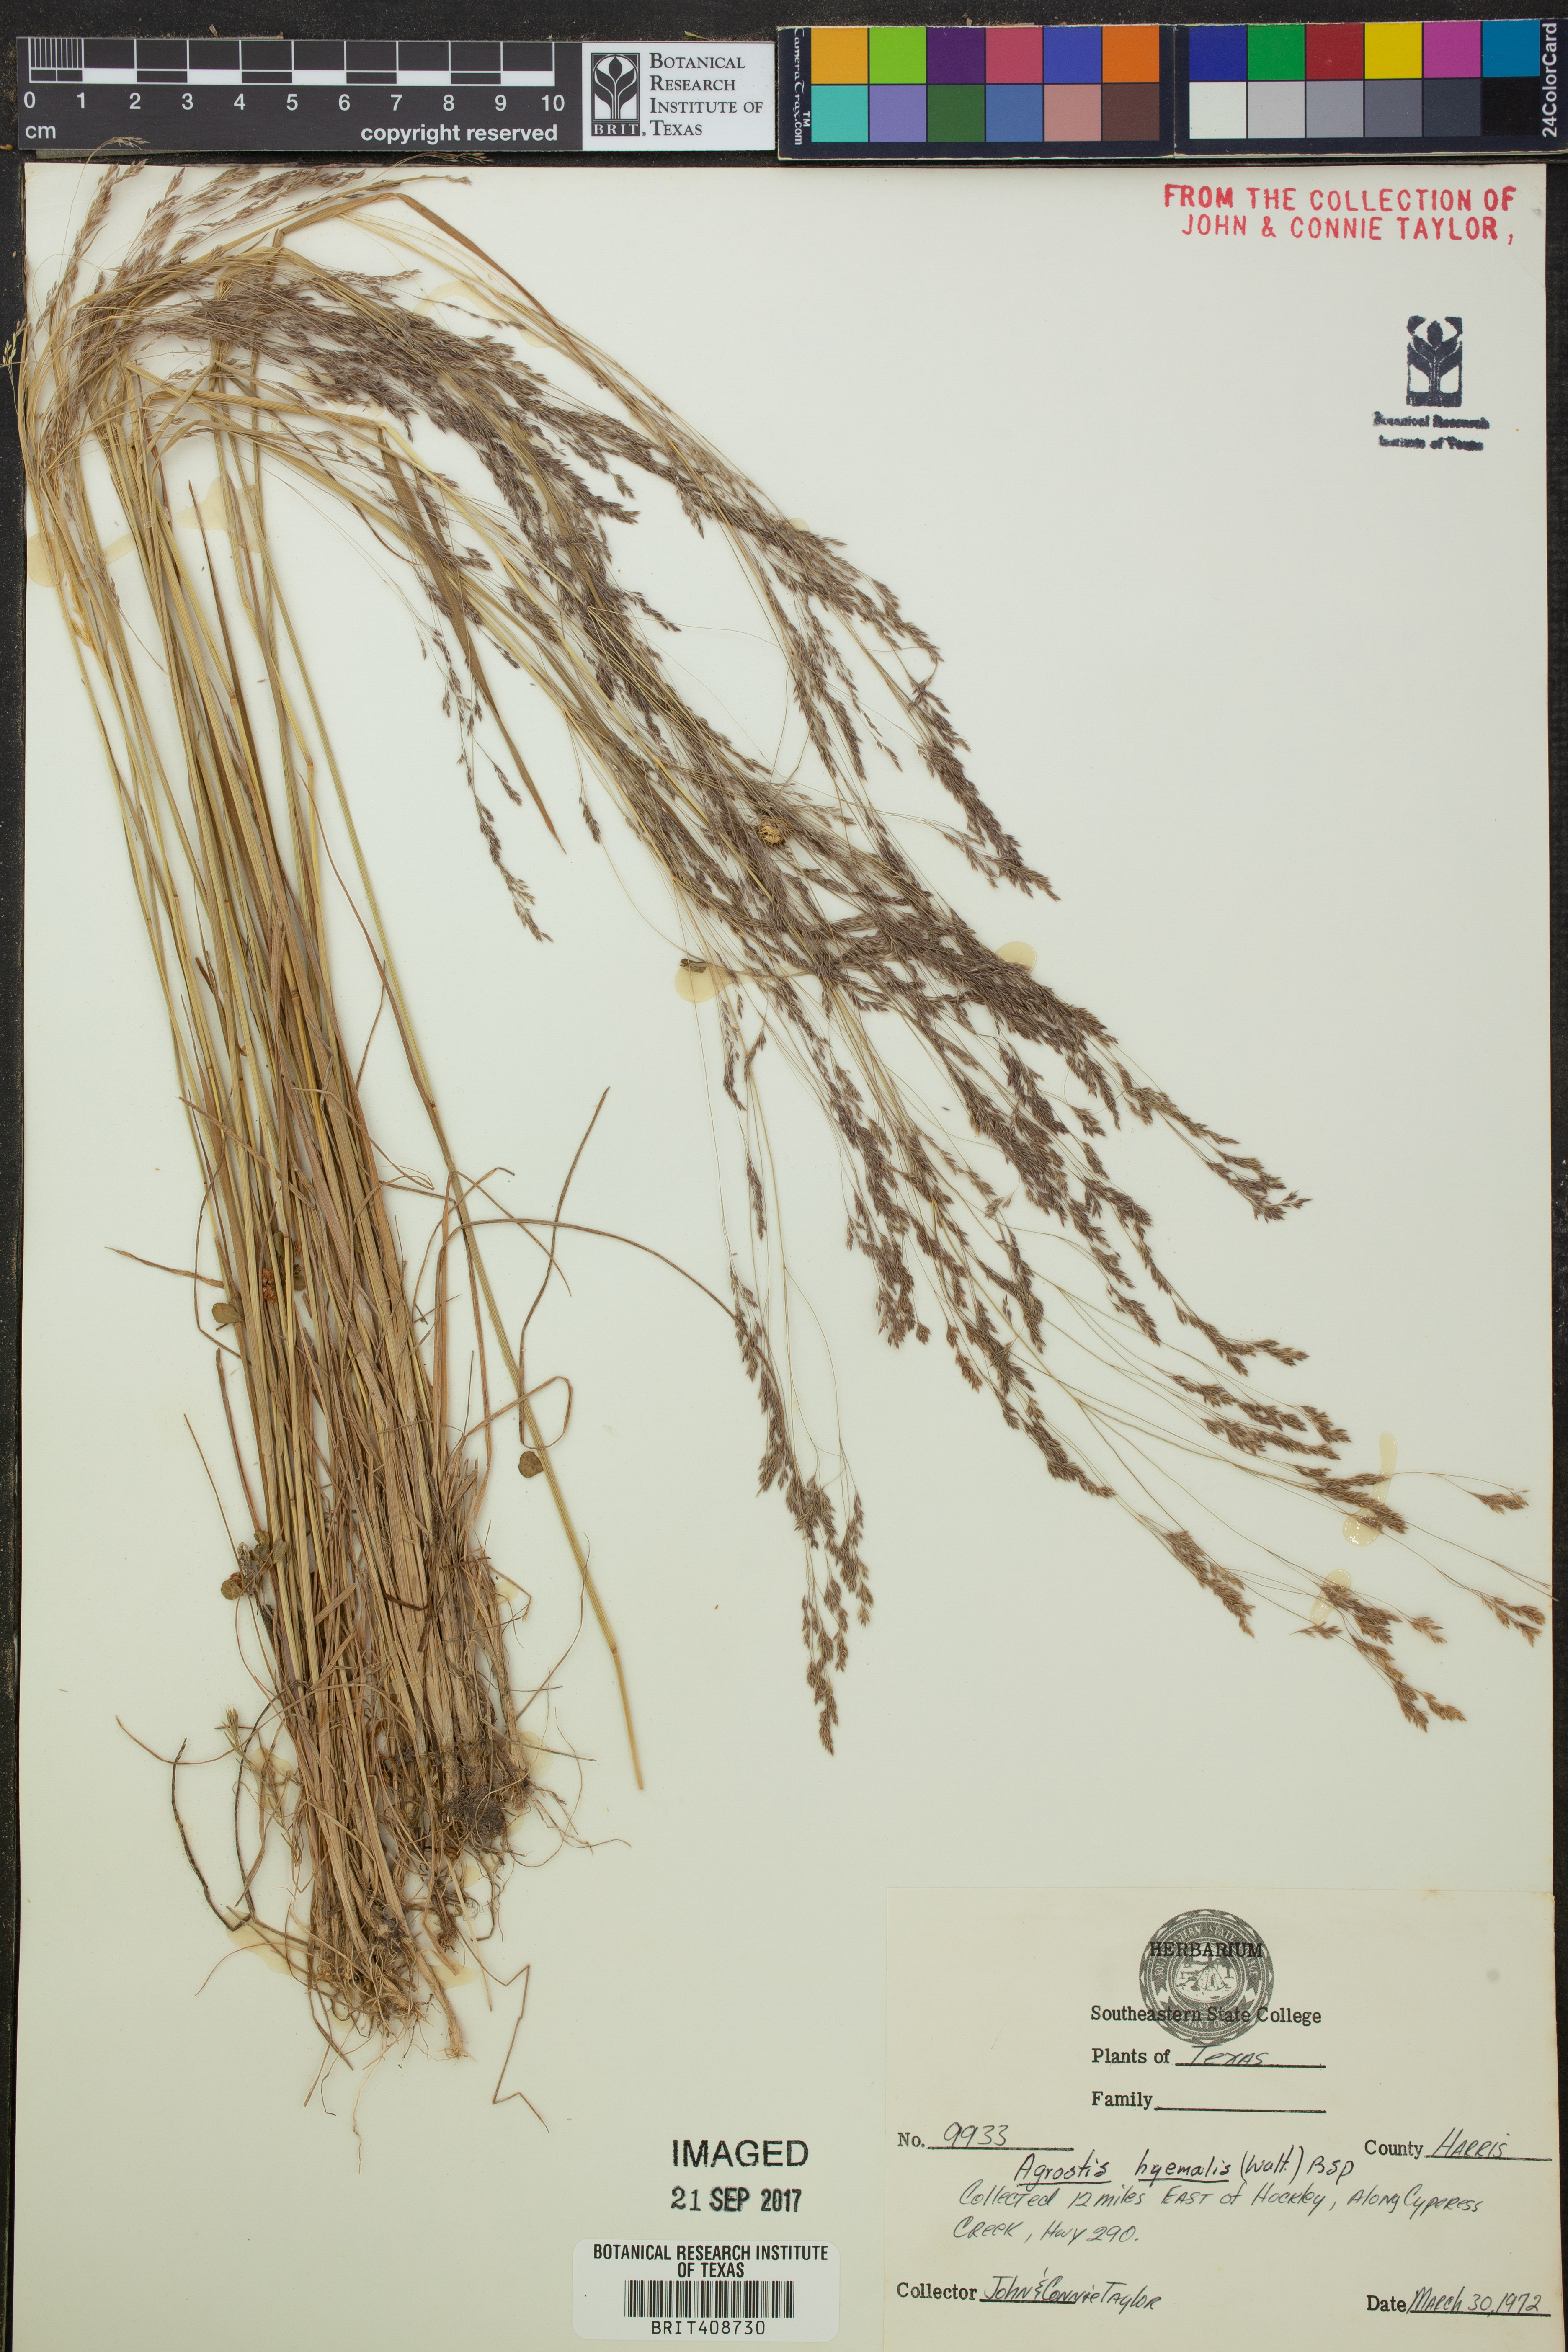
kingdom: Plantae
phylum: Tracheophyta
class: Liliopsida
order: Poales
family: Poaceae
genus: Agrostis
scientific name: Agrostis hyemalis
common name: Small bent
